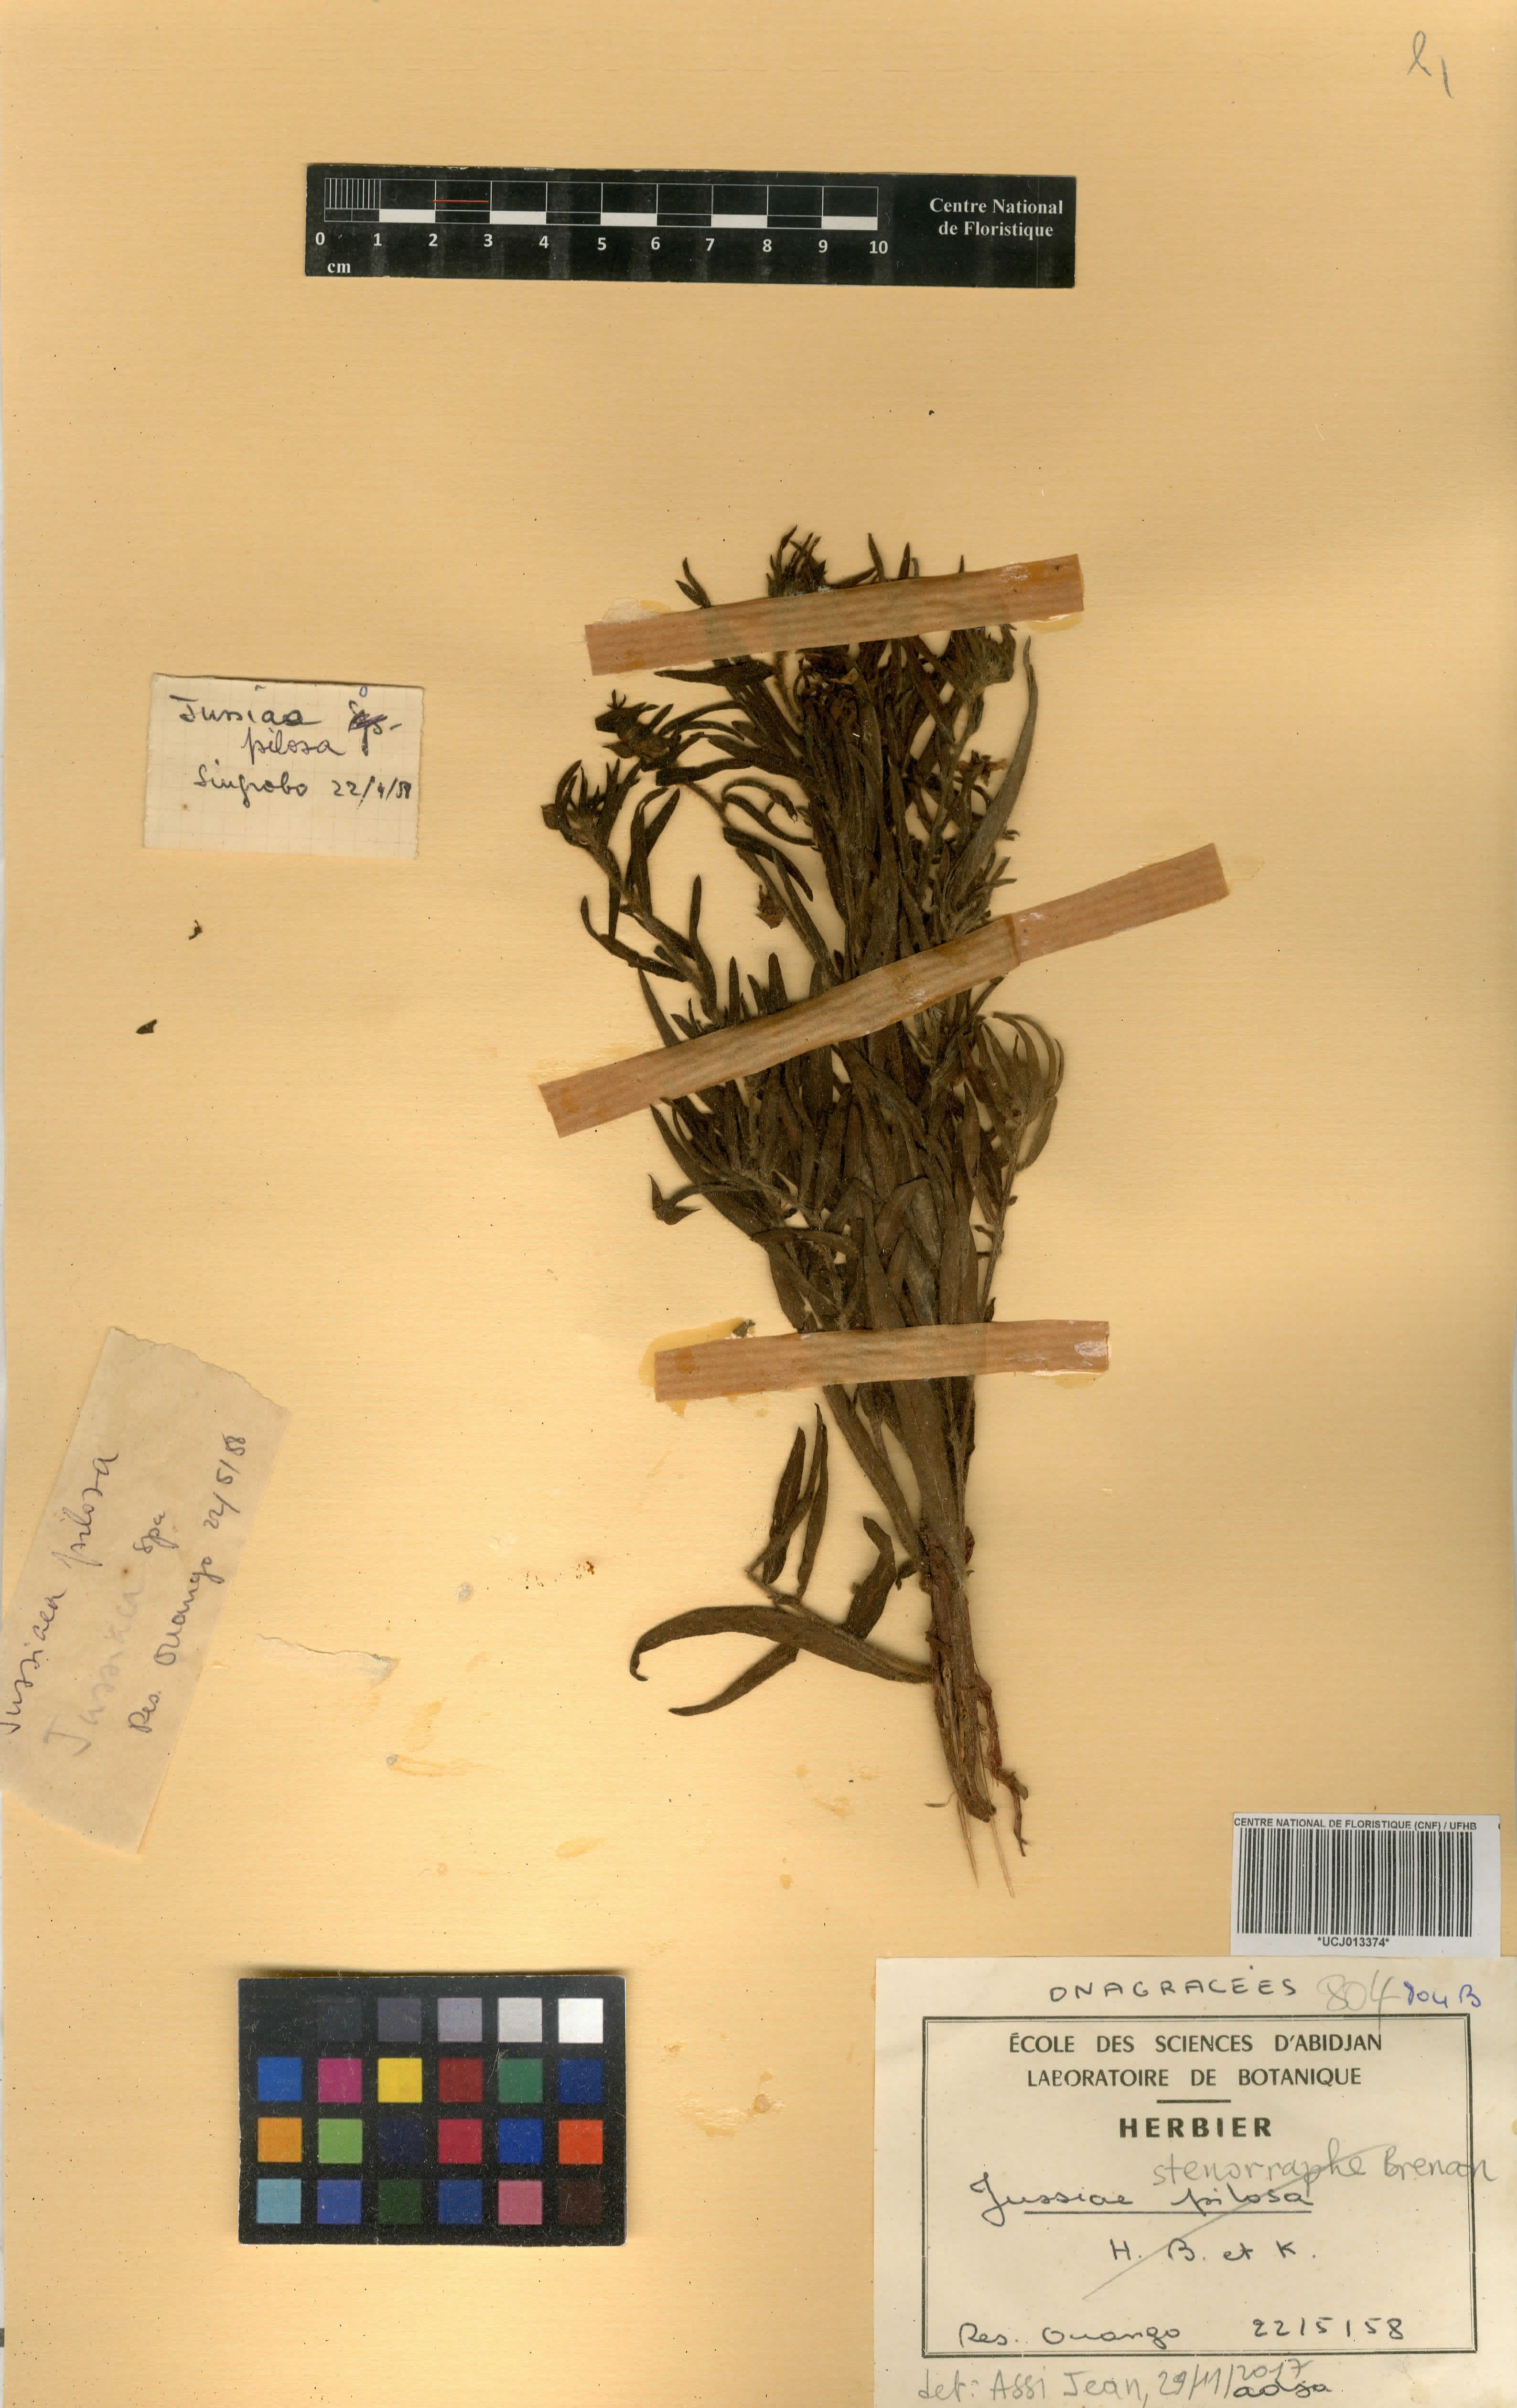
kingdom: Plantae
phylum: Tracheophyta
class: Magnoliopsida
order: Myrtales
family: Onagraceae
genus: Ludwigia
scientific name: Ludwigia stenorraphe
